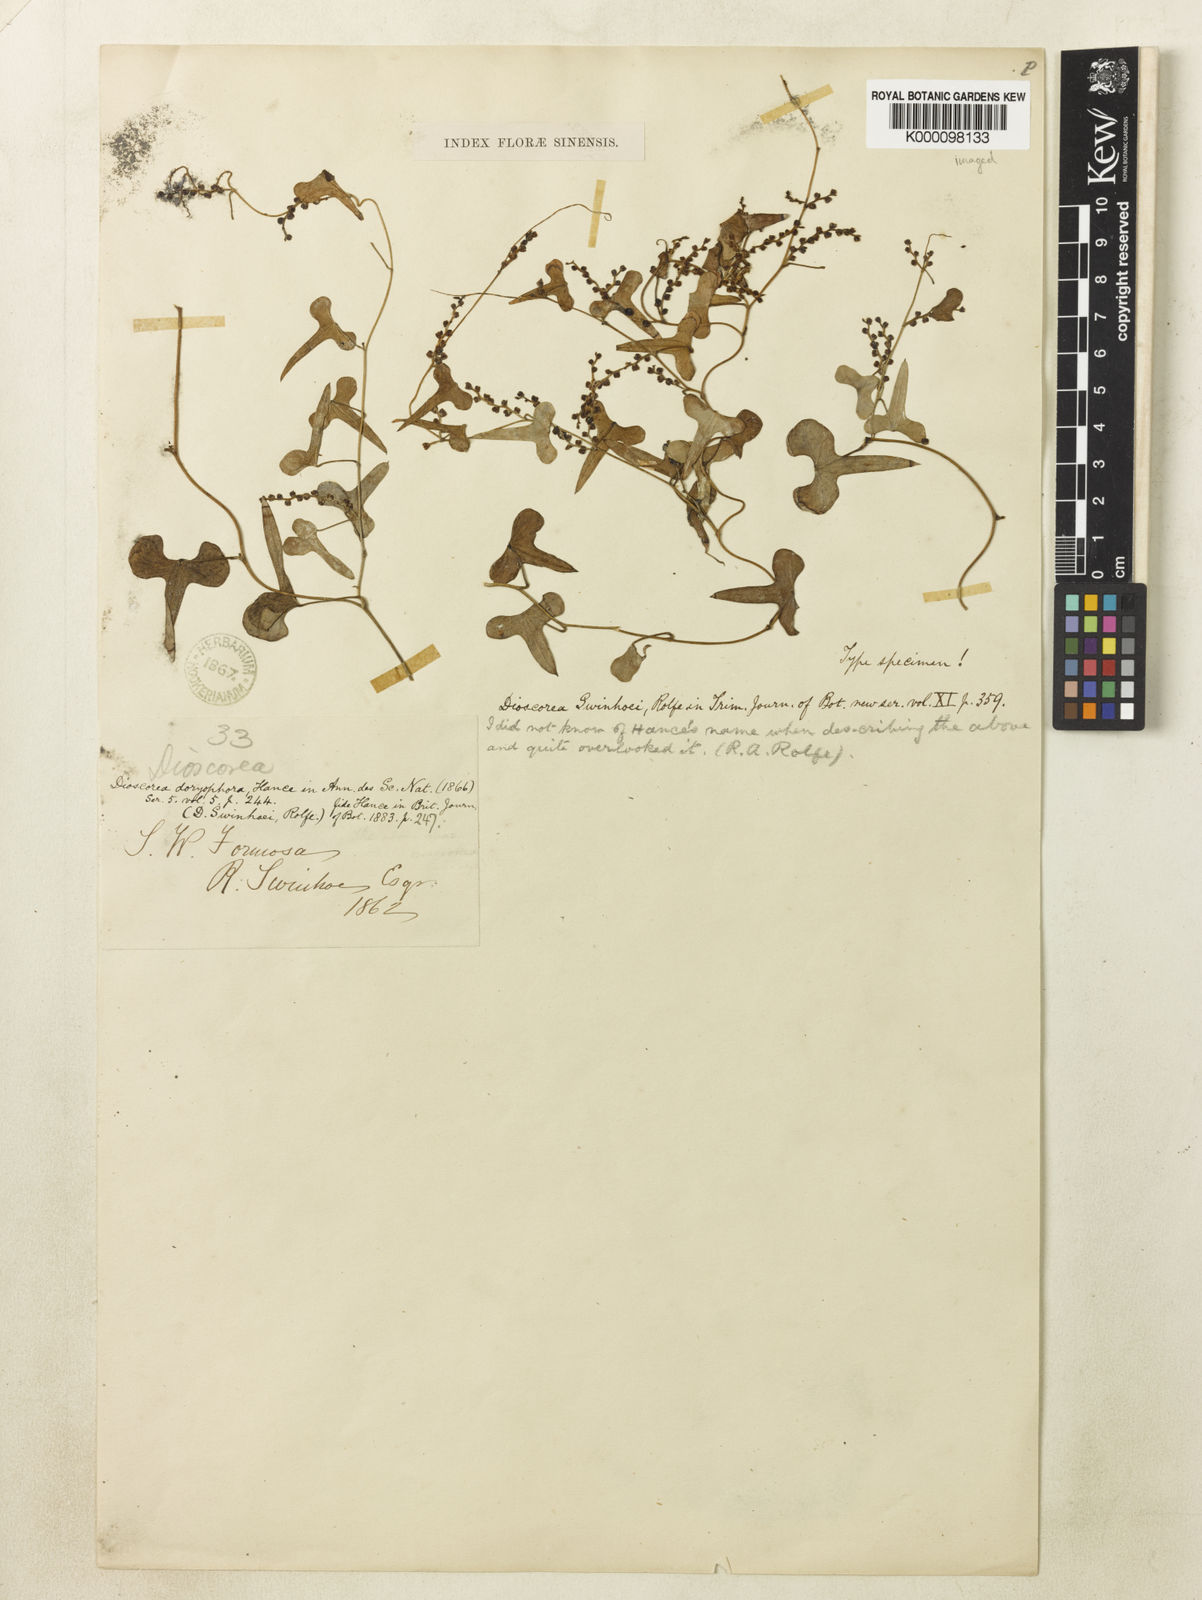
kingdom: Plantae
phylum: Tracheophyta
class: Liliopsida
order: Dioscoreales
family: Dioscoreaceae
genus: Dioscorea
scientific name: Dioscorea
